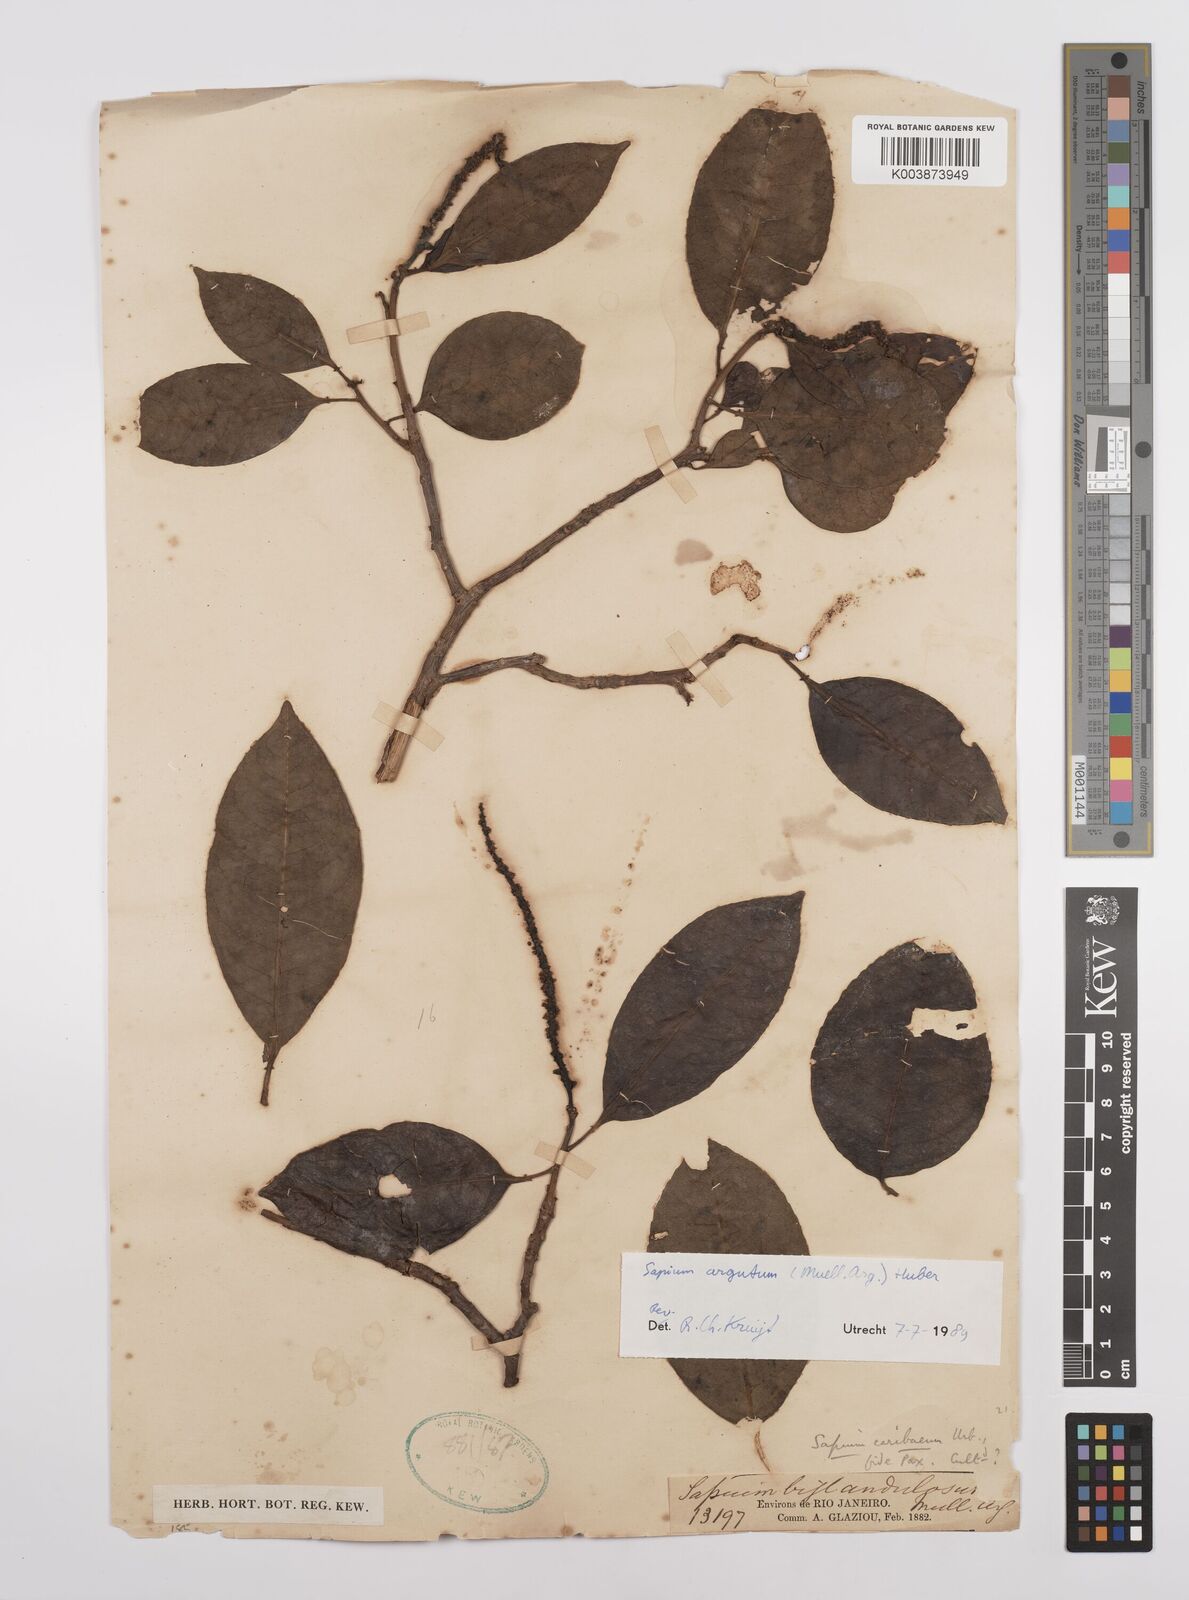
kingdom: Plantae
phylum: Tracheophyta
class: Magnoliopsida
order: Malpighiales
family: Euphorbiaceae
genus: Sapium
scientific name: Sapium glandulosum
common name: Milktree
